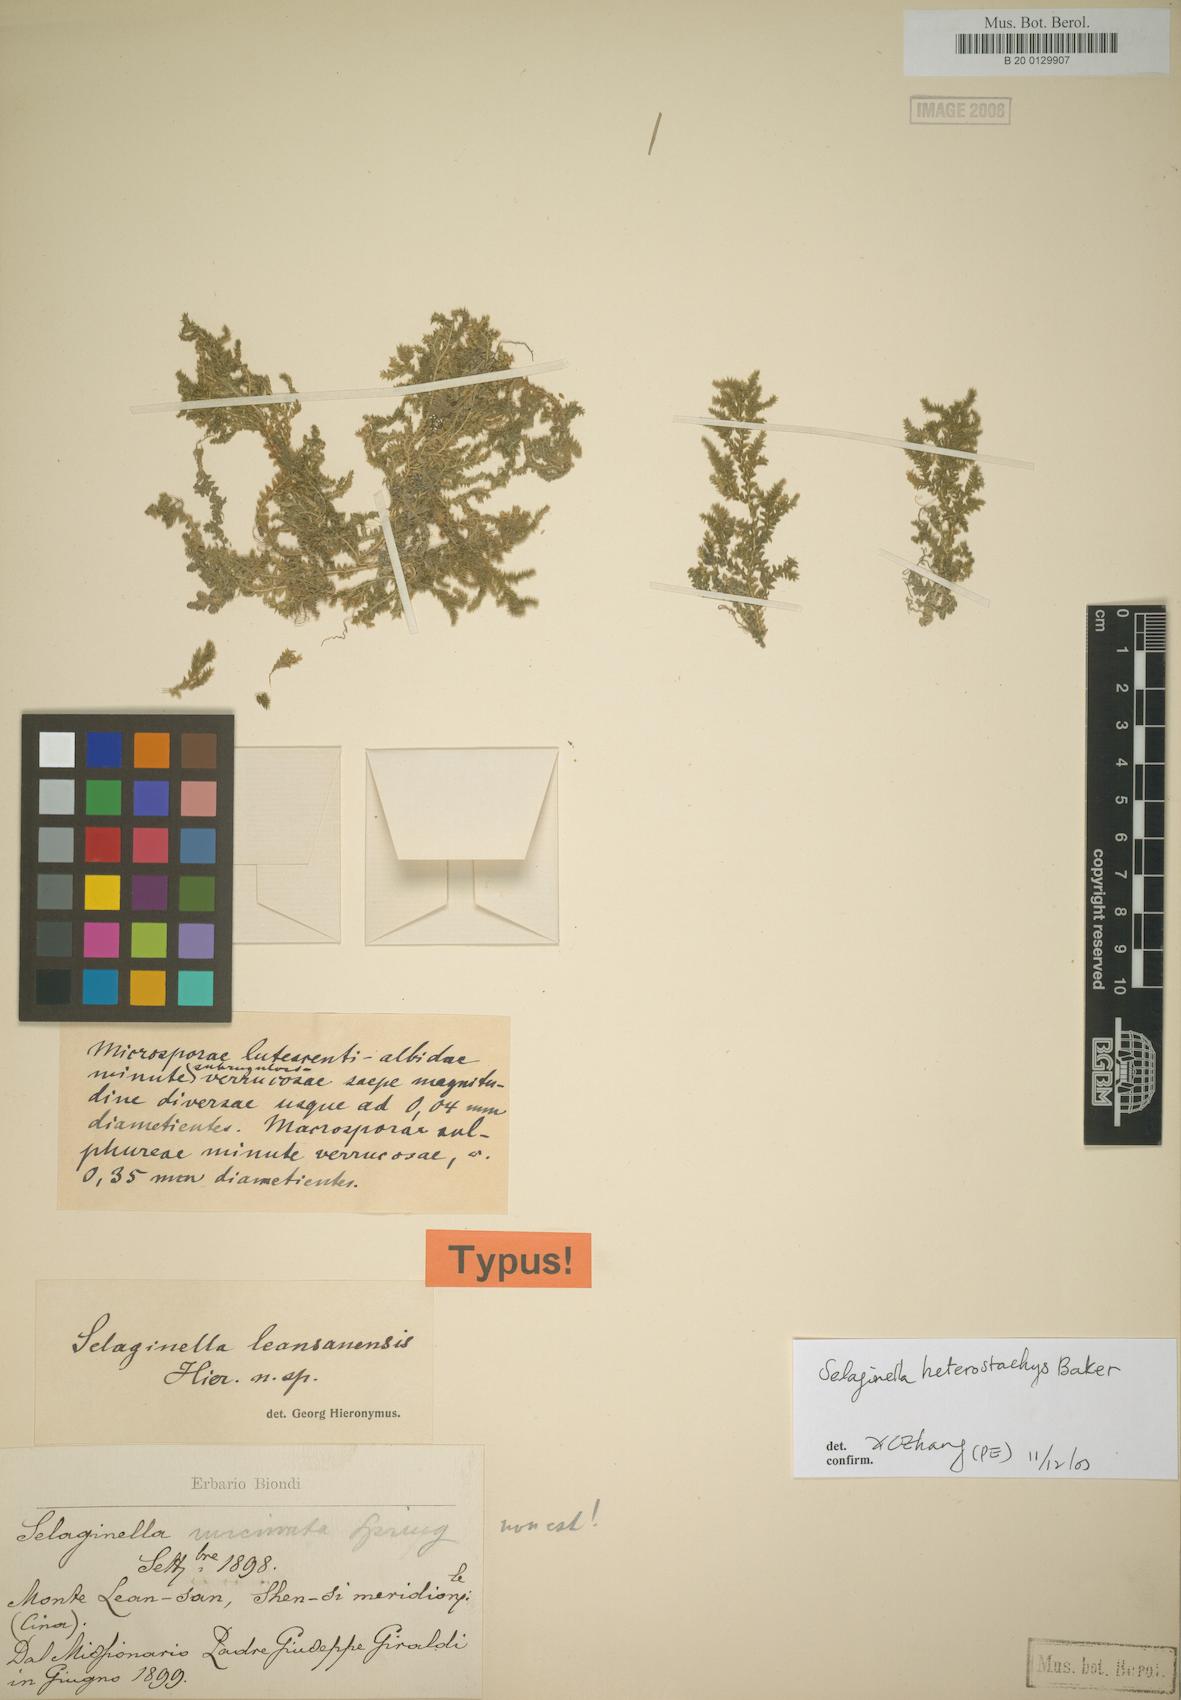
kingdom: Plantae
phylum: Tracheophyta
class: Lycopodiopsida
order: Selaginellales
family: Selaginellaceae
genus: Selaginella
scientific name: Selaginella heterostachys
